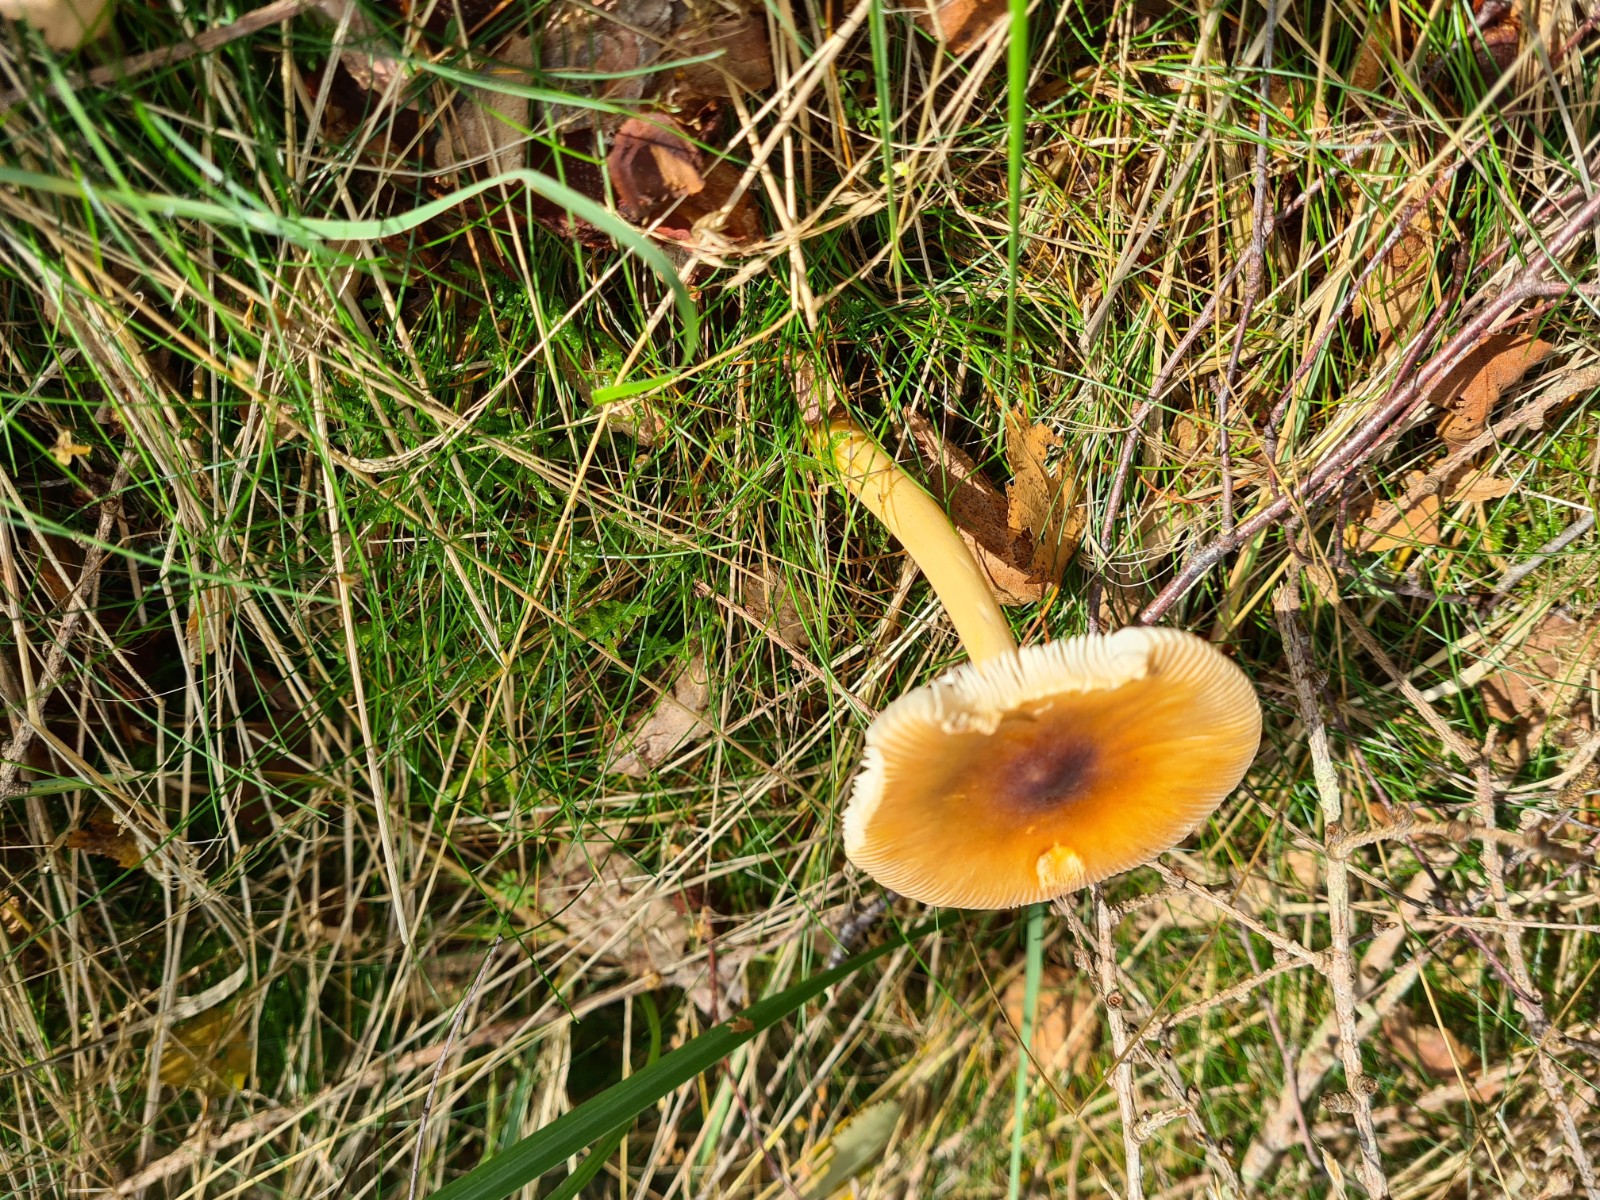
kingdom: Fungi
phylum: Basidiomycota
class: Agaricomycetes
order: Agaricales
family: Amanitaceae
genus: Amanita
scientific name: Amanita
